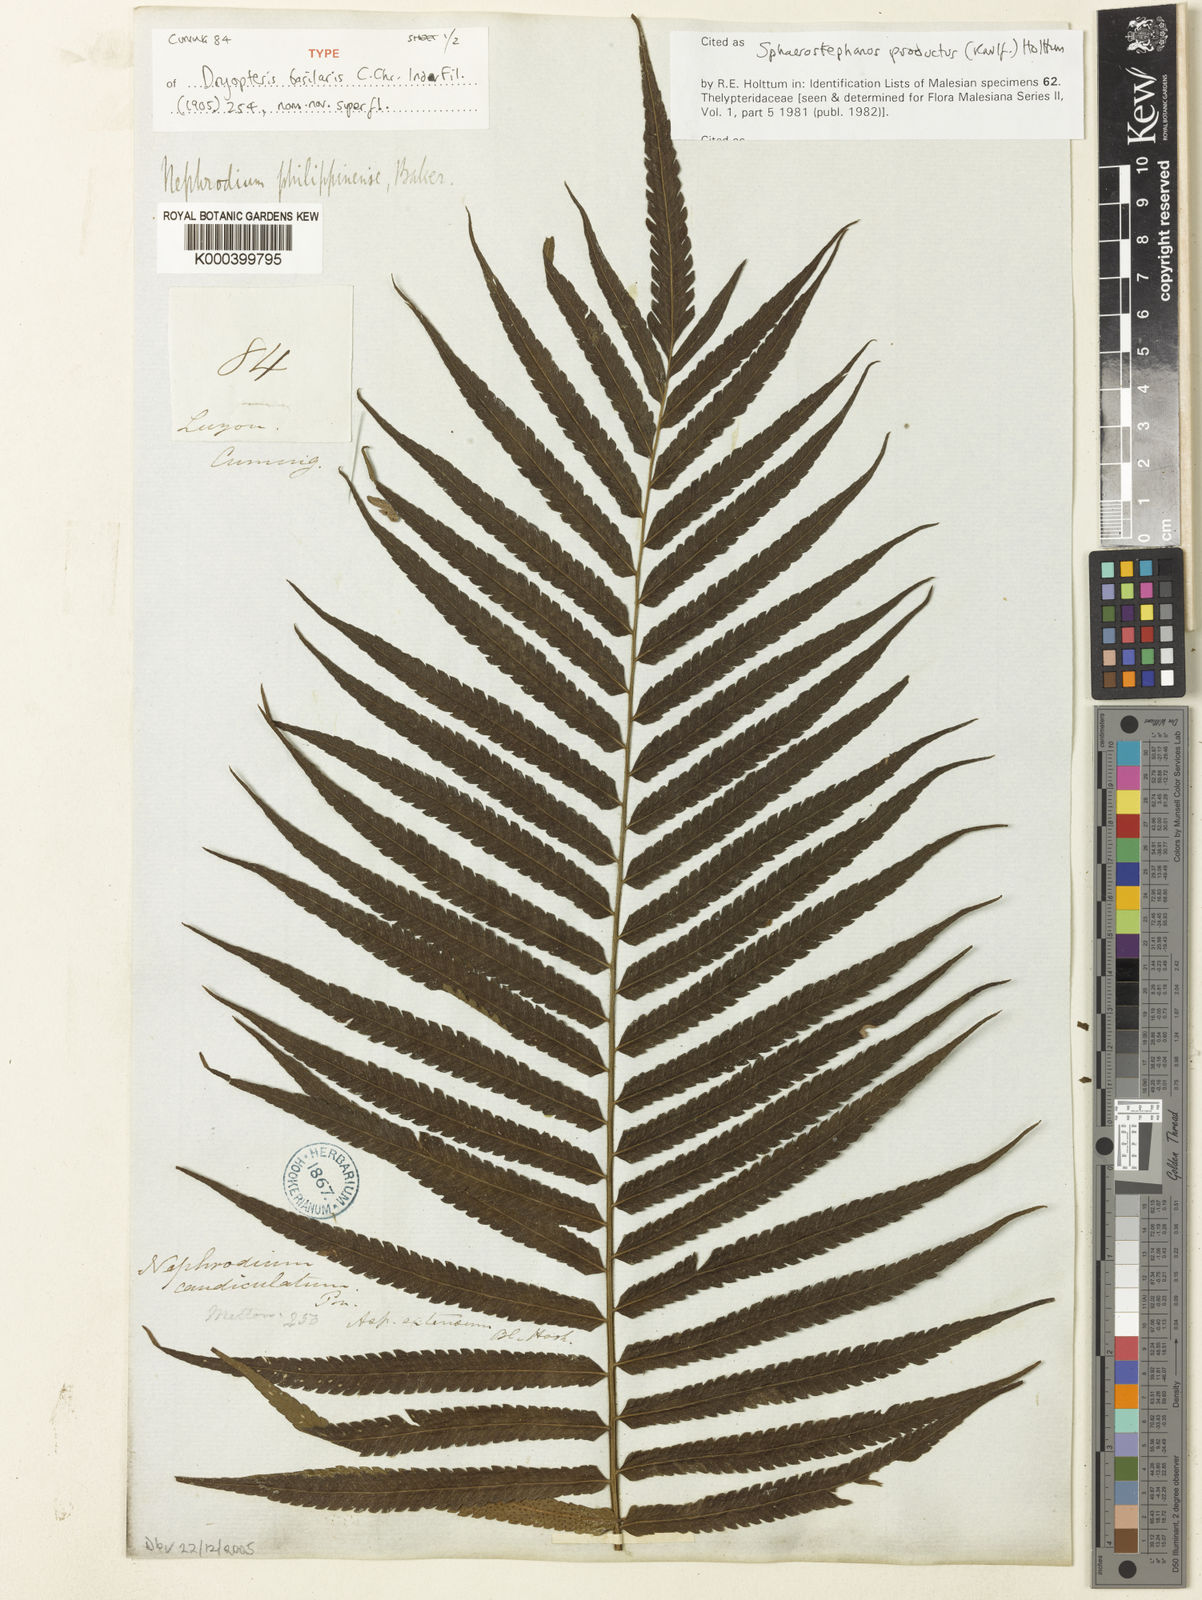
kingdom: Plantae
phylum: Tracheophyta
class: Polypodiopsida
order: Polypodiales
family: Thelypteridaceae
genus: Sphaerostephanos
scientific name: Sphaerostephanos productus
